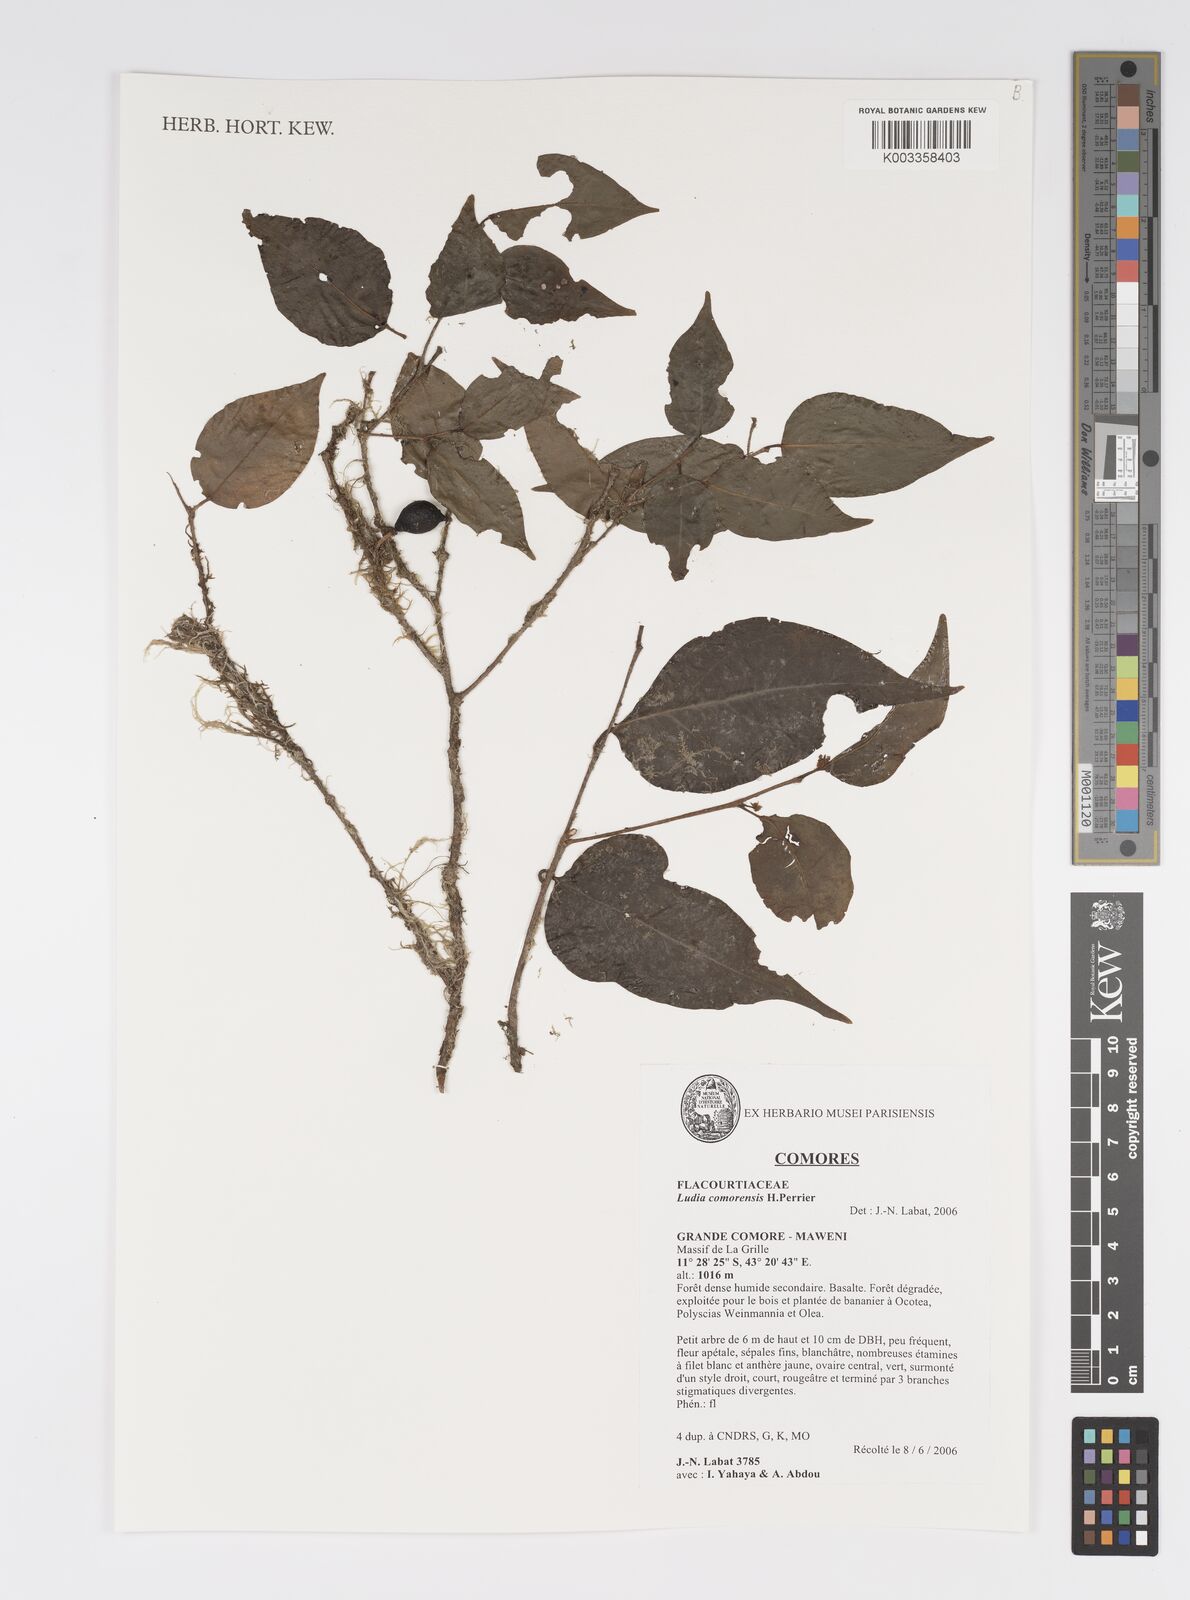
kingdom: Plantae
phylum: Tracheophyta
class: Magnoliopsida
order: Malpighiales
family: Salicaceae
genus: Ludia
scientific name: Ludia comorensis
